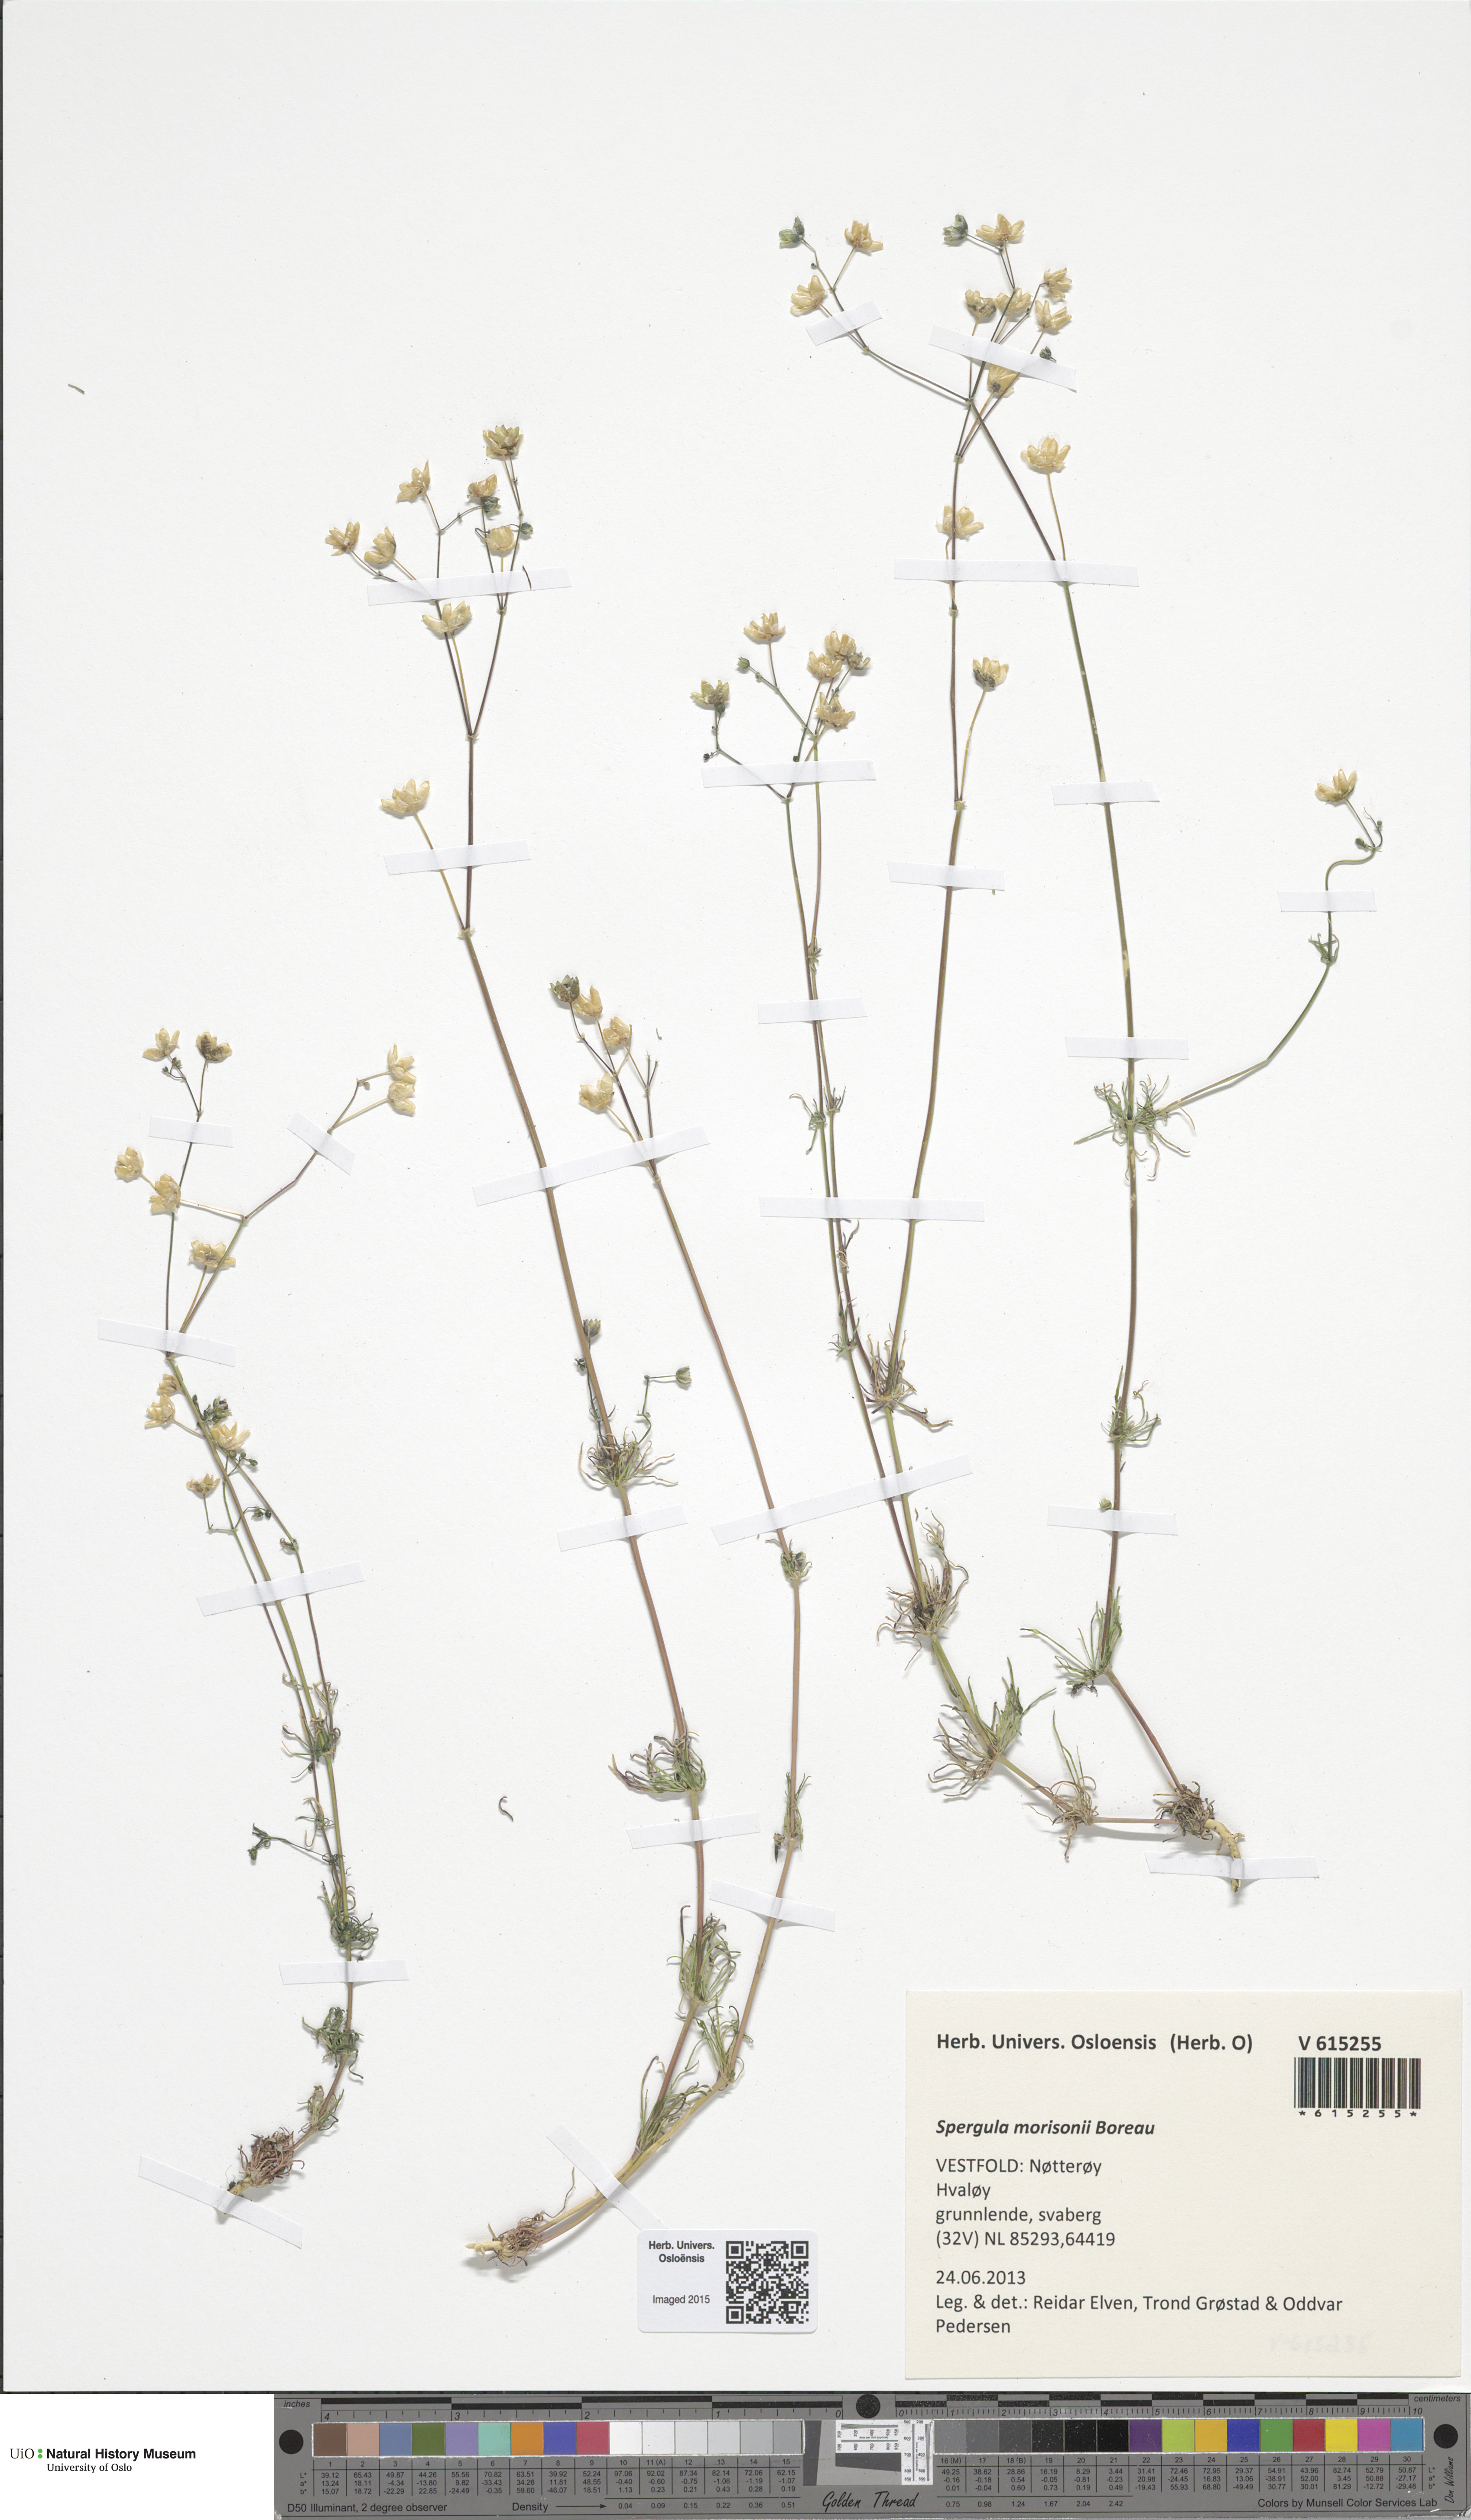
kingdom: Plantae
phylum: Tracheophyta
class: Magnoliopsida
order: Caryophyllales
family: Caryophyllaceae
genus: Spergula
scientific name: Spergula morisonii
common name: Pearlwort spurrey
